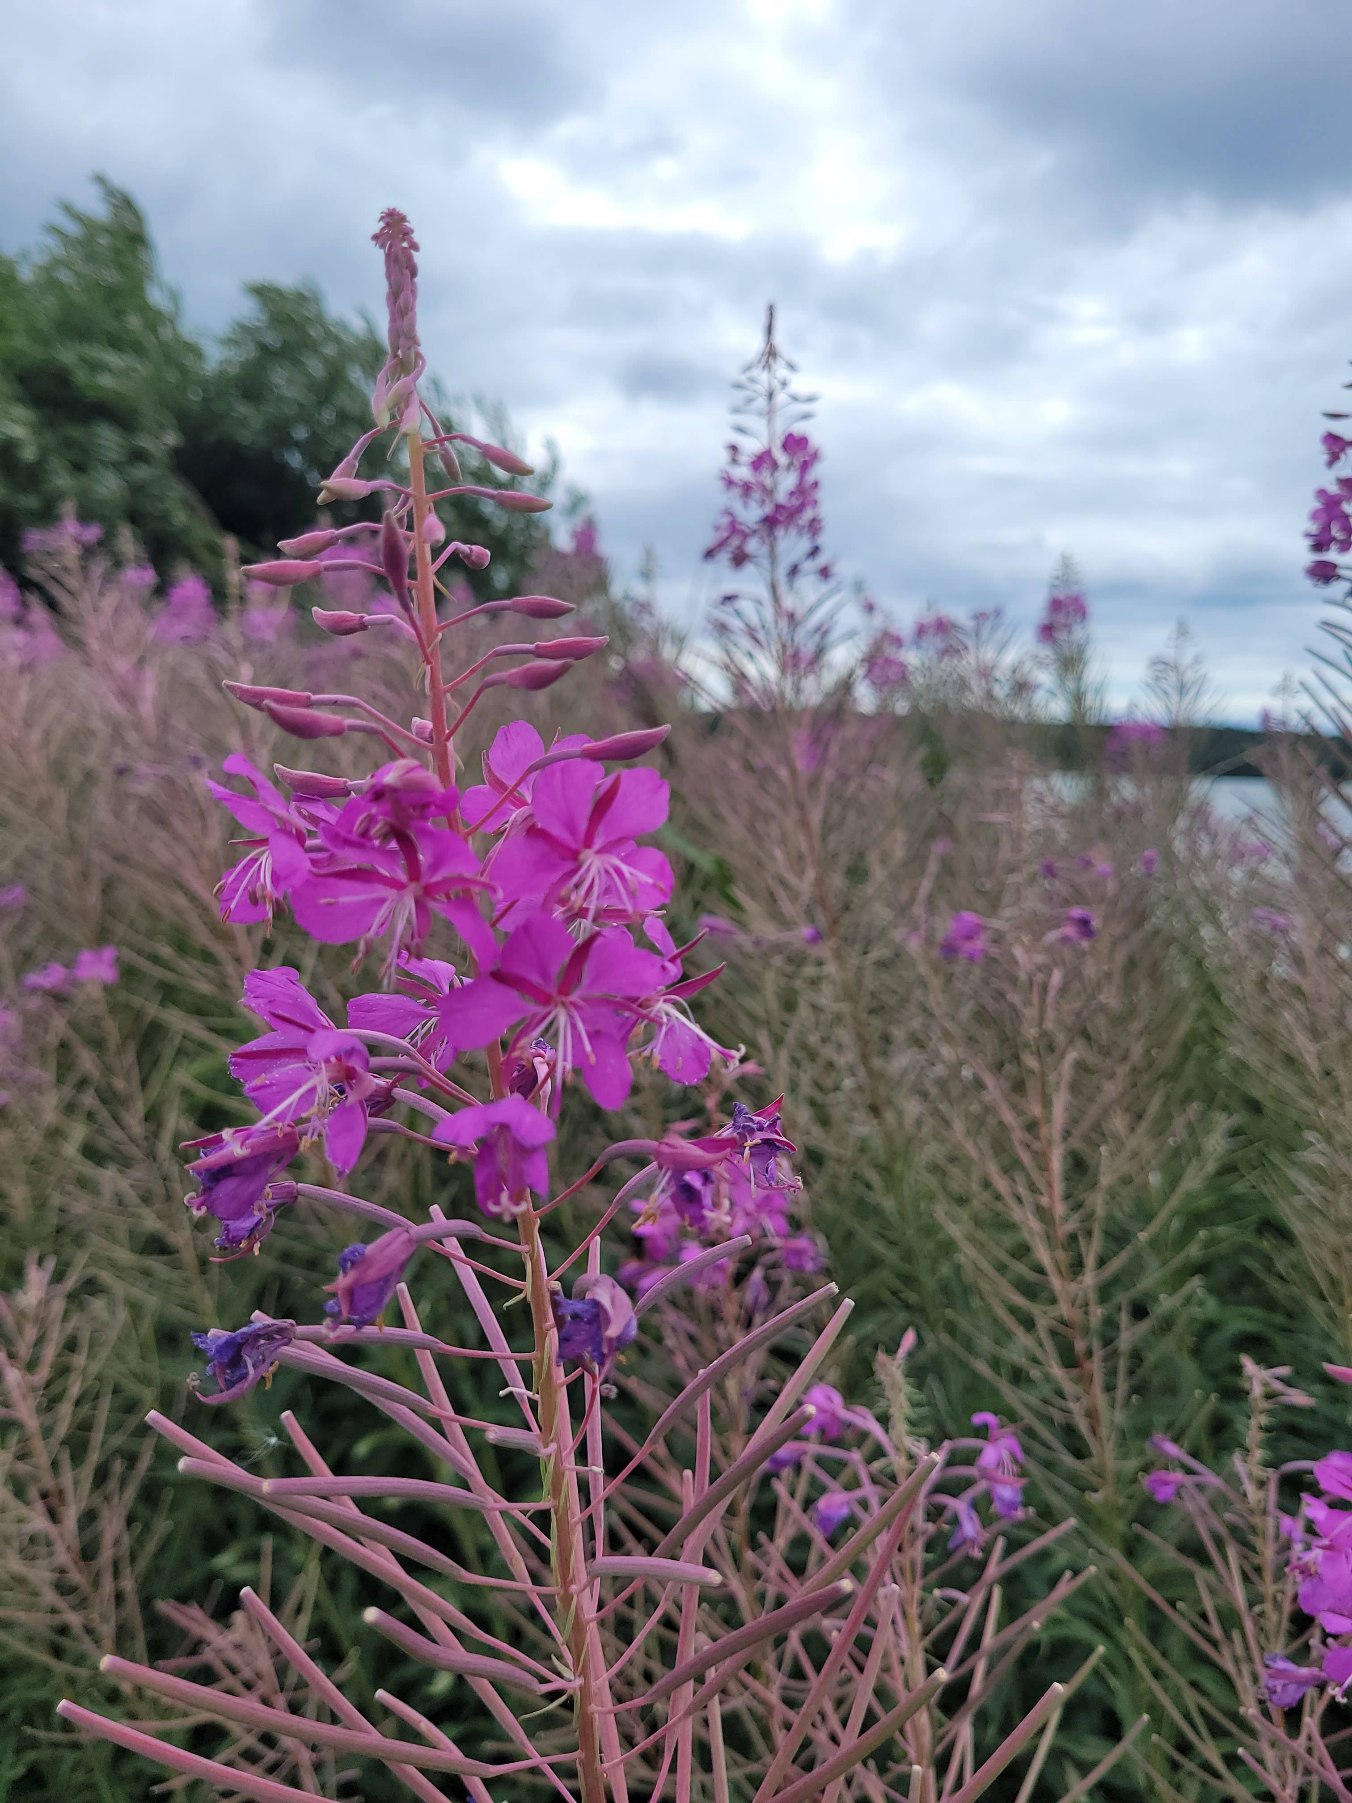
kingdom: Plantae
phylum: Tracheophyta
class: Magnoliopsida
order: Myrtales
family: Onagraceae
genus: Chamaenerion
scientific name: Chamaenerion angustifolium
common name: Gederams
